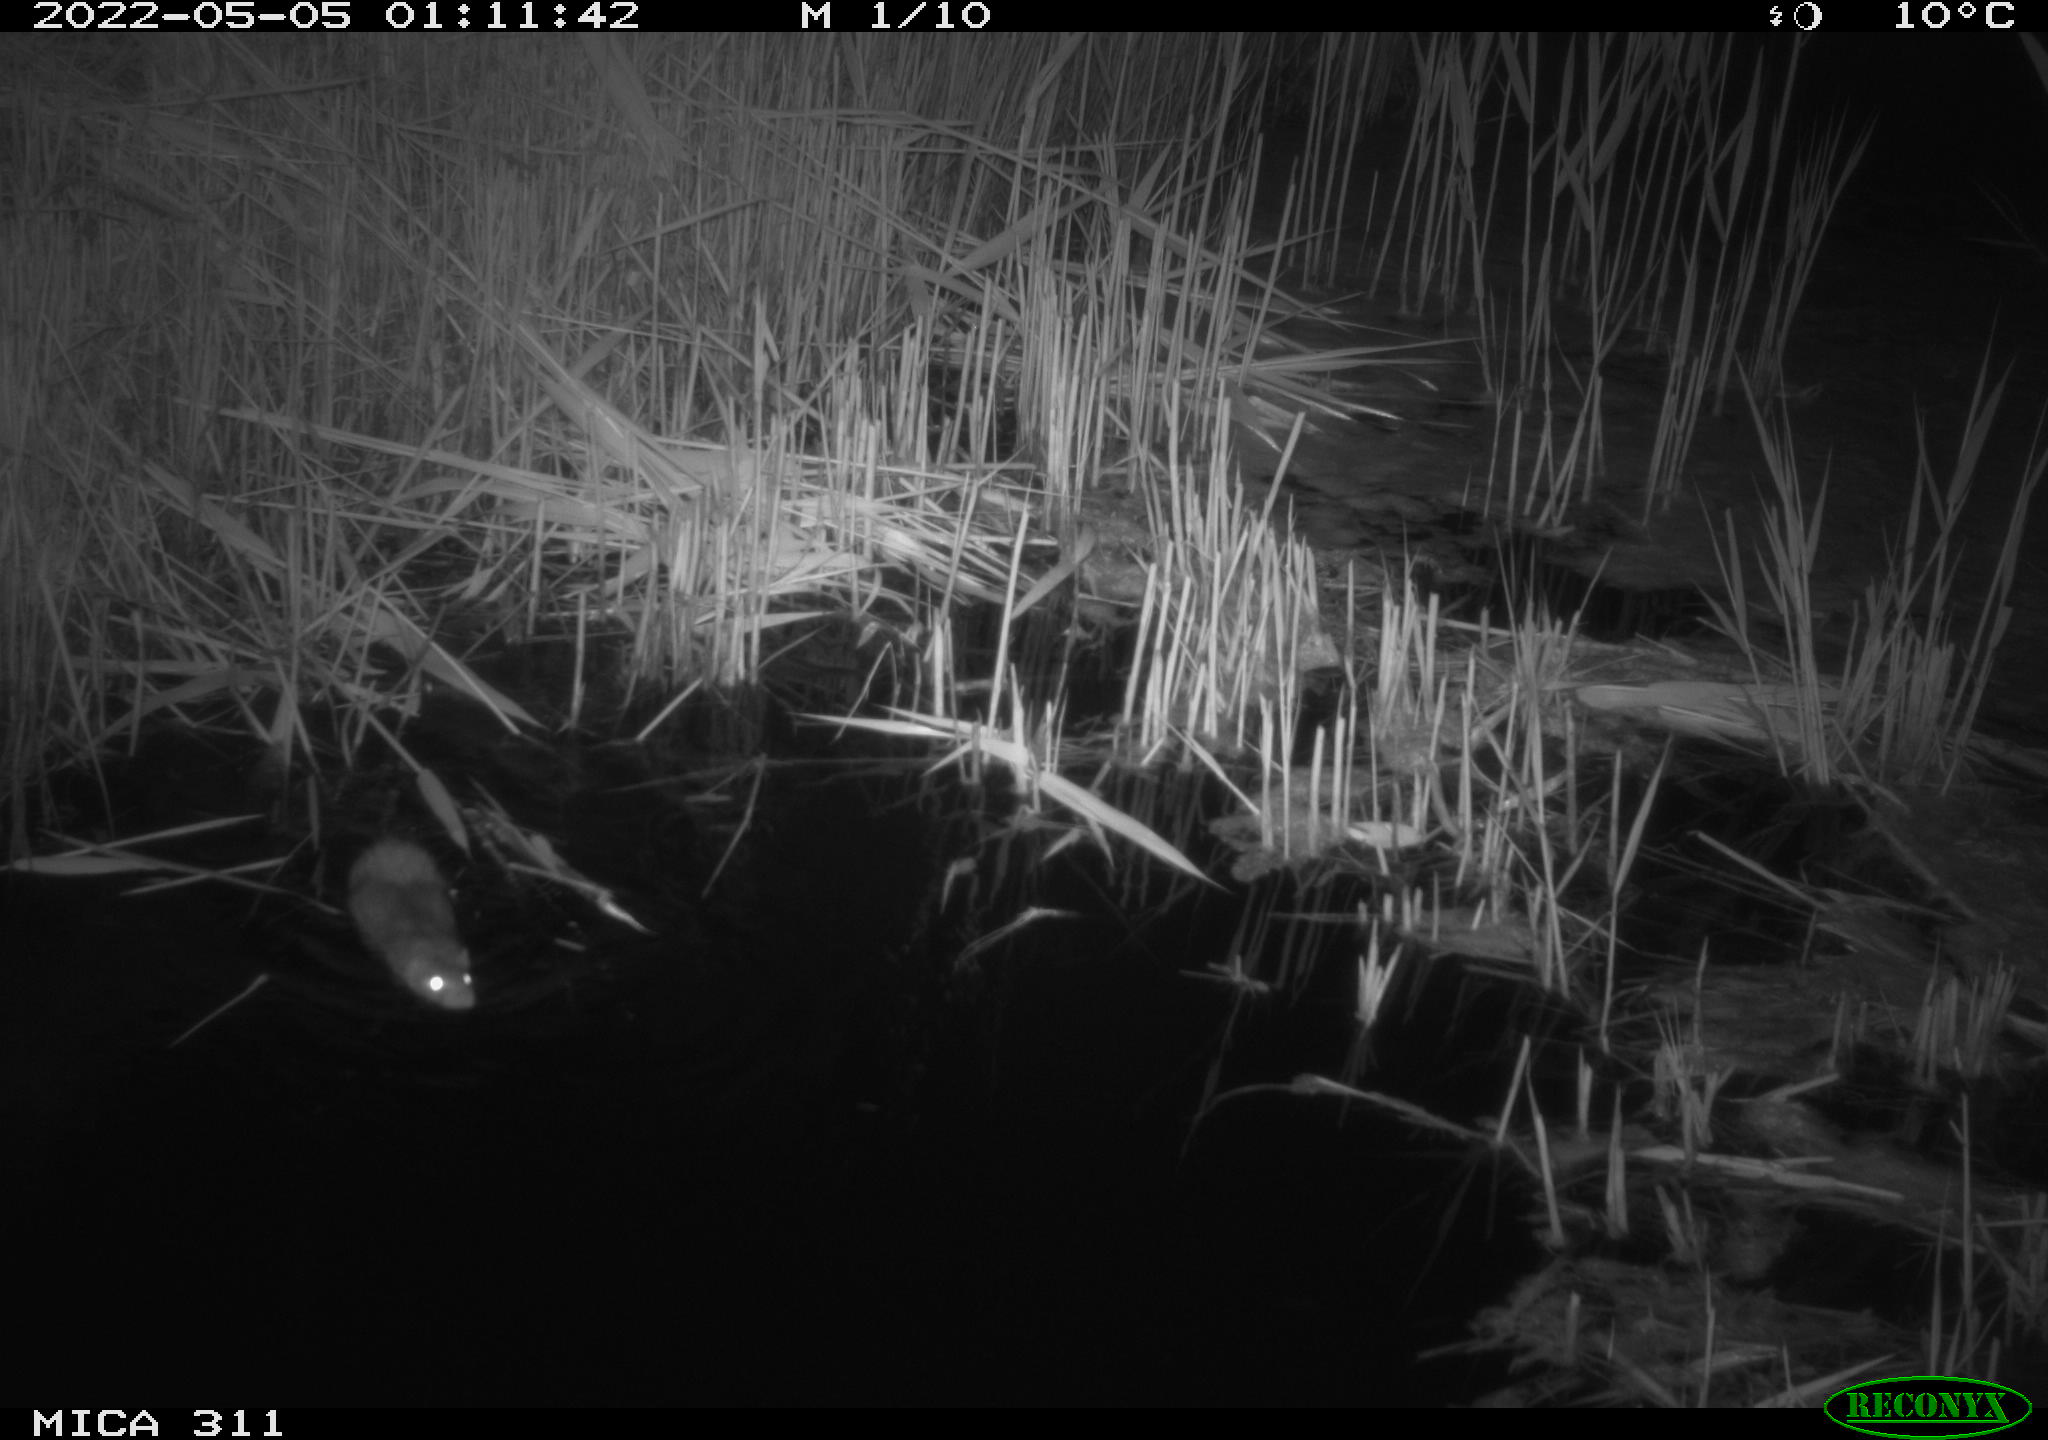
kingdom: Animalia
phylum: Chordata
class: Mammalia
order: Rodentia
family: Muridae
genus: Rattus
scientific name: Rattus norvegicus
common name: Brown rat
